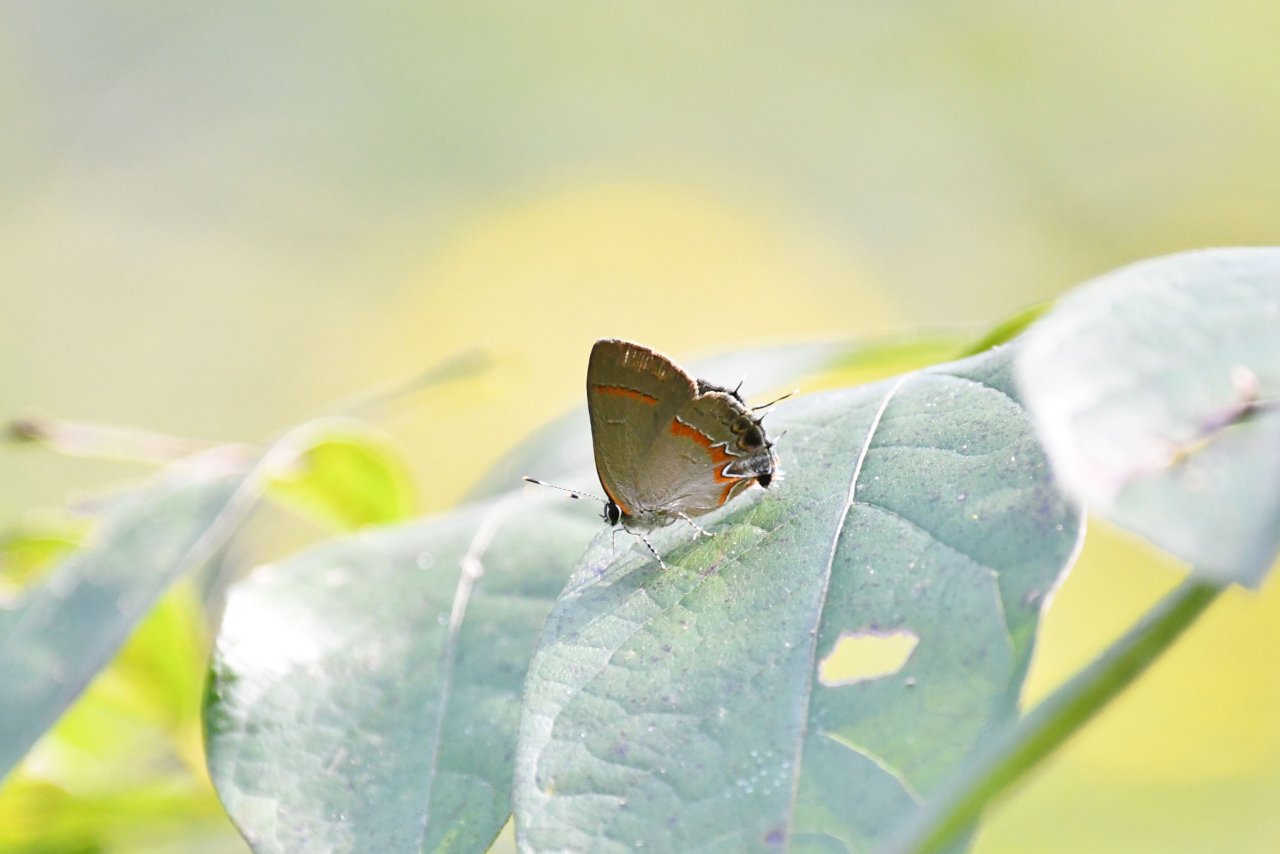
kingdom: Animalia
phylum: Arthropoda
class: Insecta
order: Lepidoptera
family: Lycaenidae
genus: Calycopis
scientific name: Calycopis cecrops
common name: Red-banded Hairstreak
